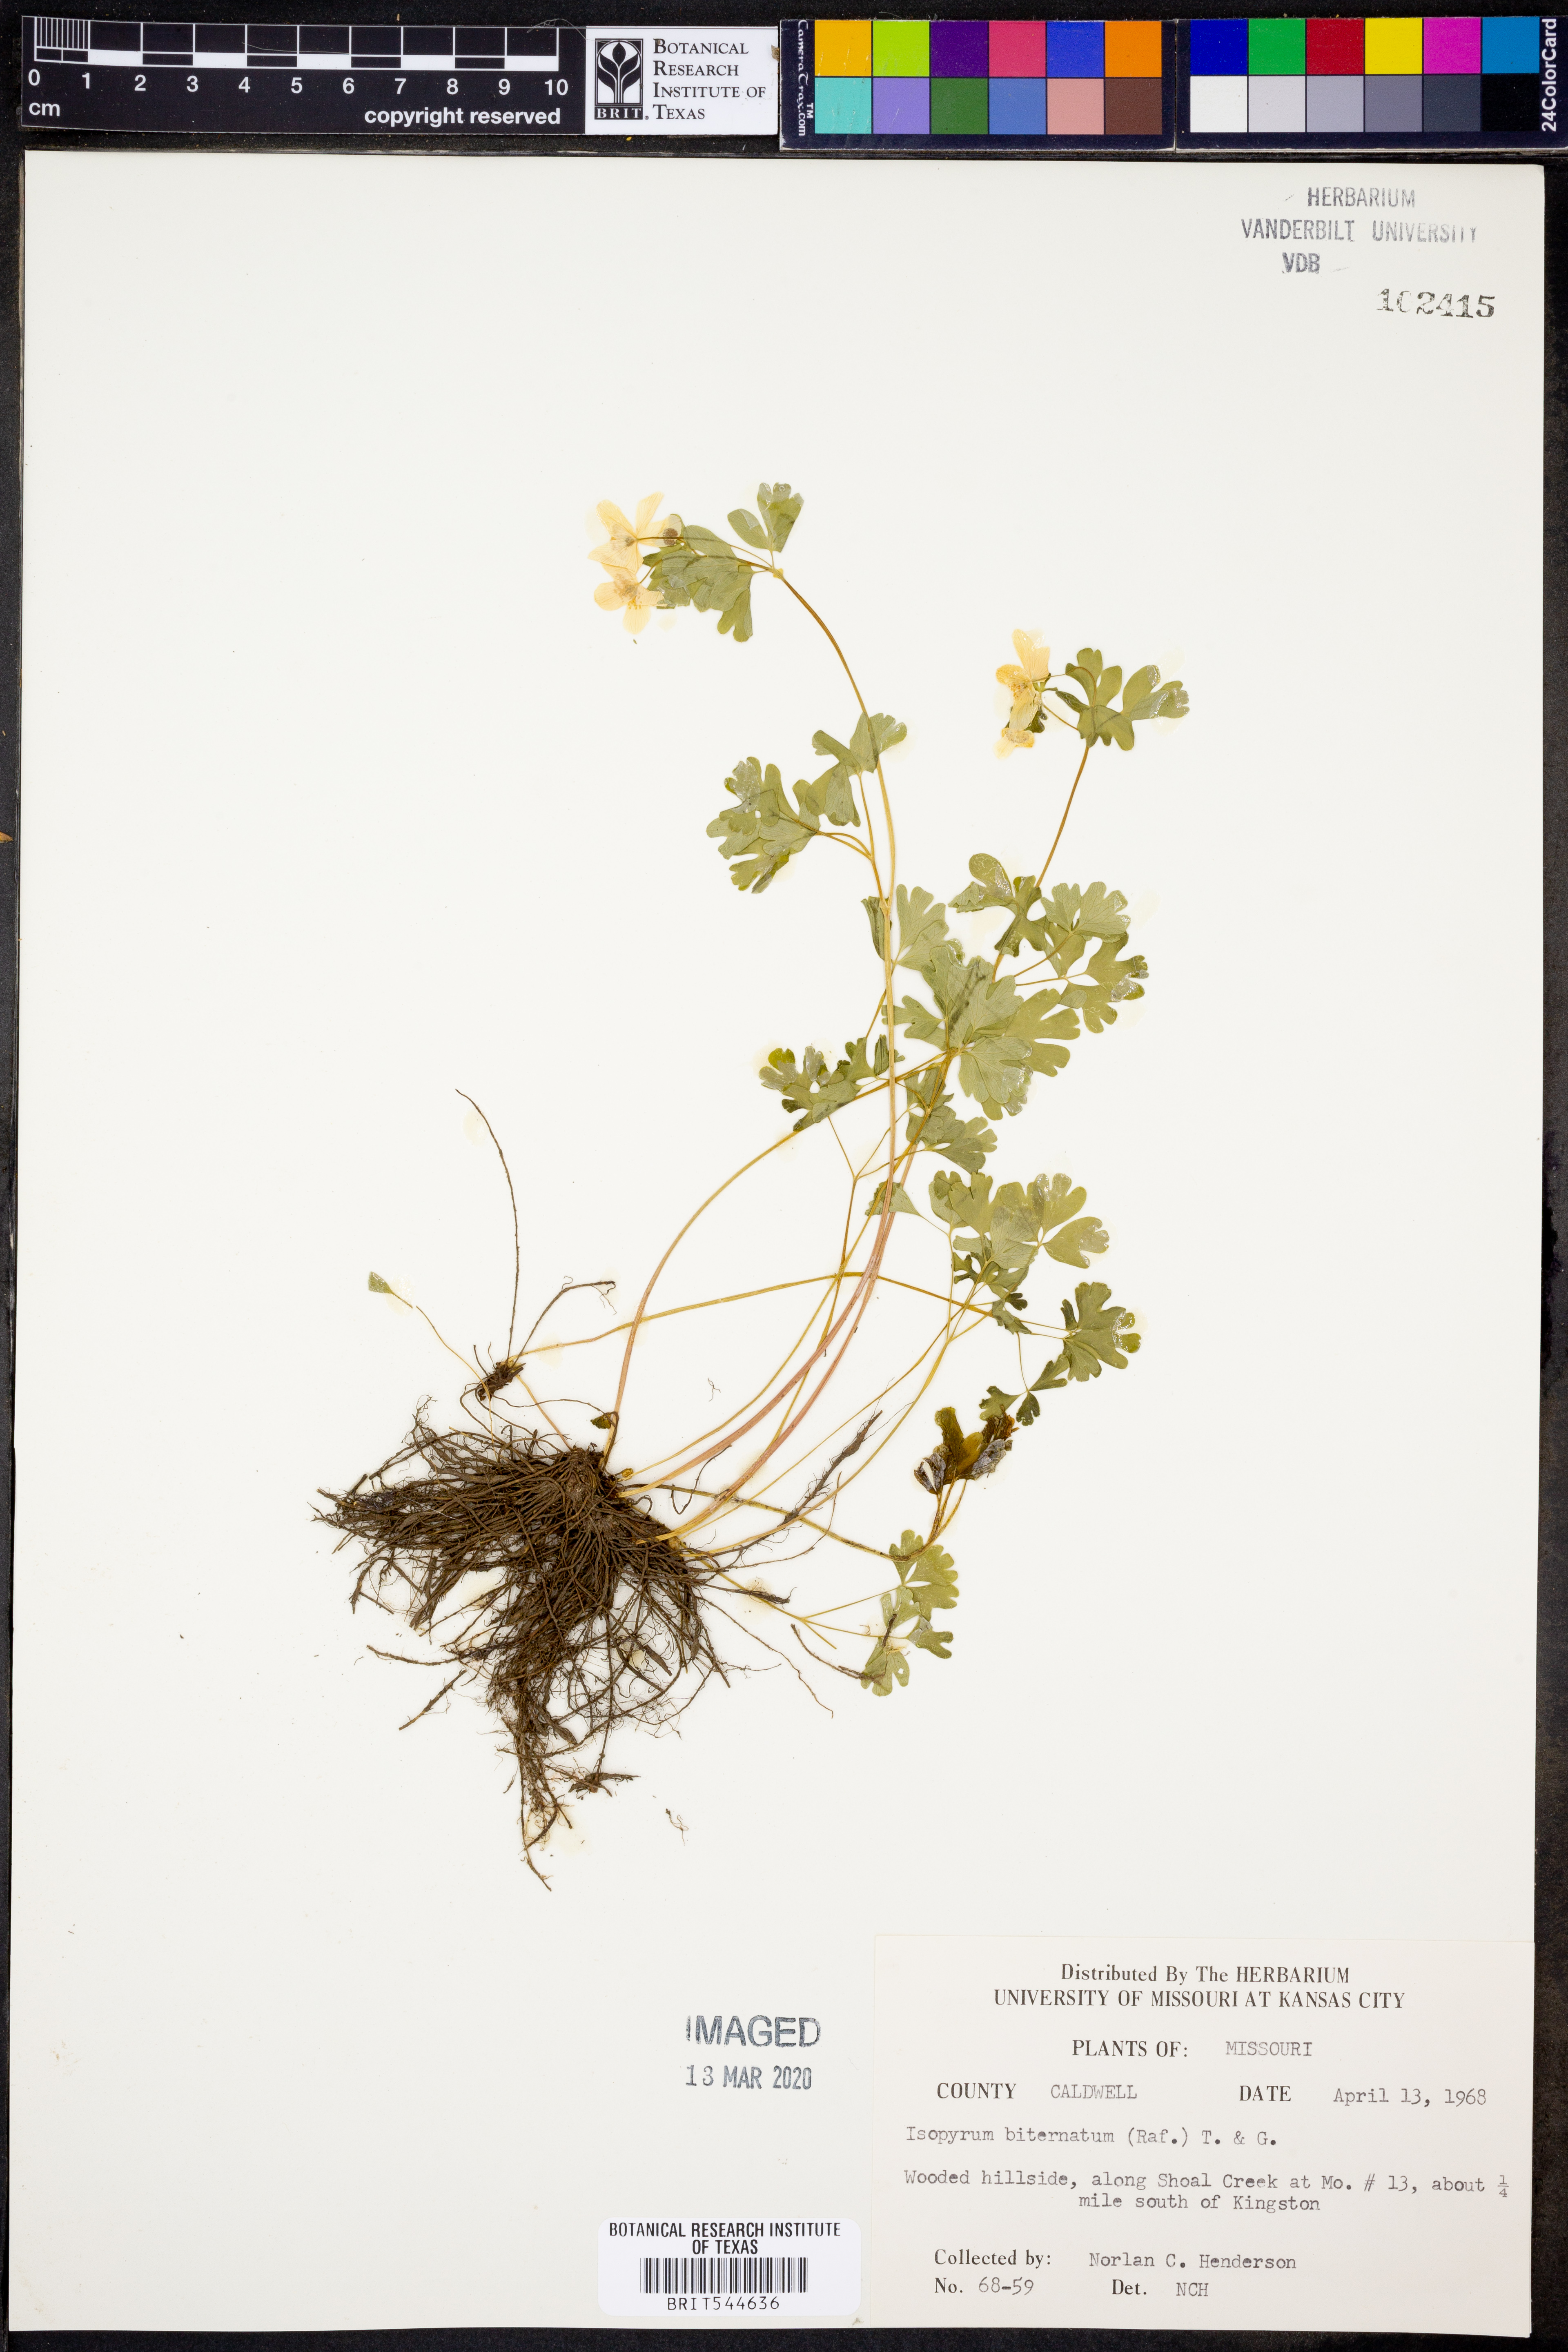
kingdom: Plantae
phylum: Tracheophyta
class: Magnoliopsida
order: Ranunculales
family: Ranunculaceae
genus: Enemion
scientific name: Enemion biternatum
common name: Eastern false rue-anemone
